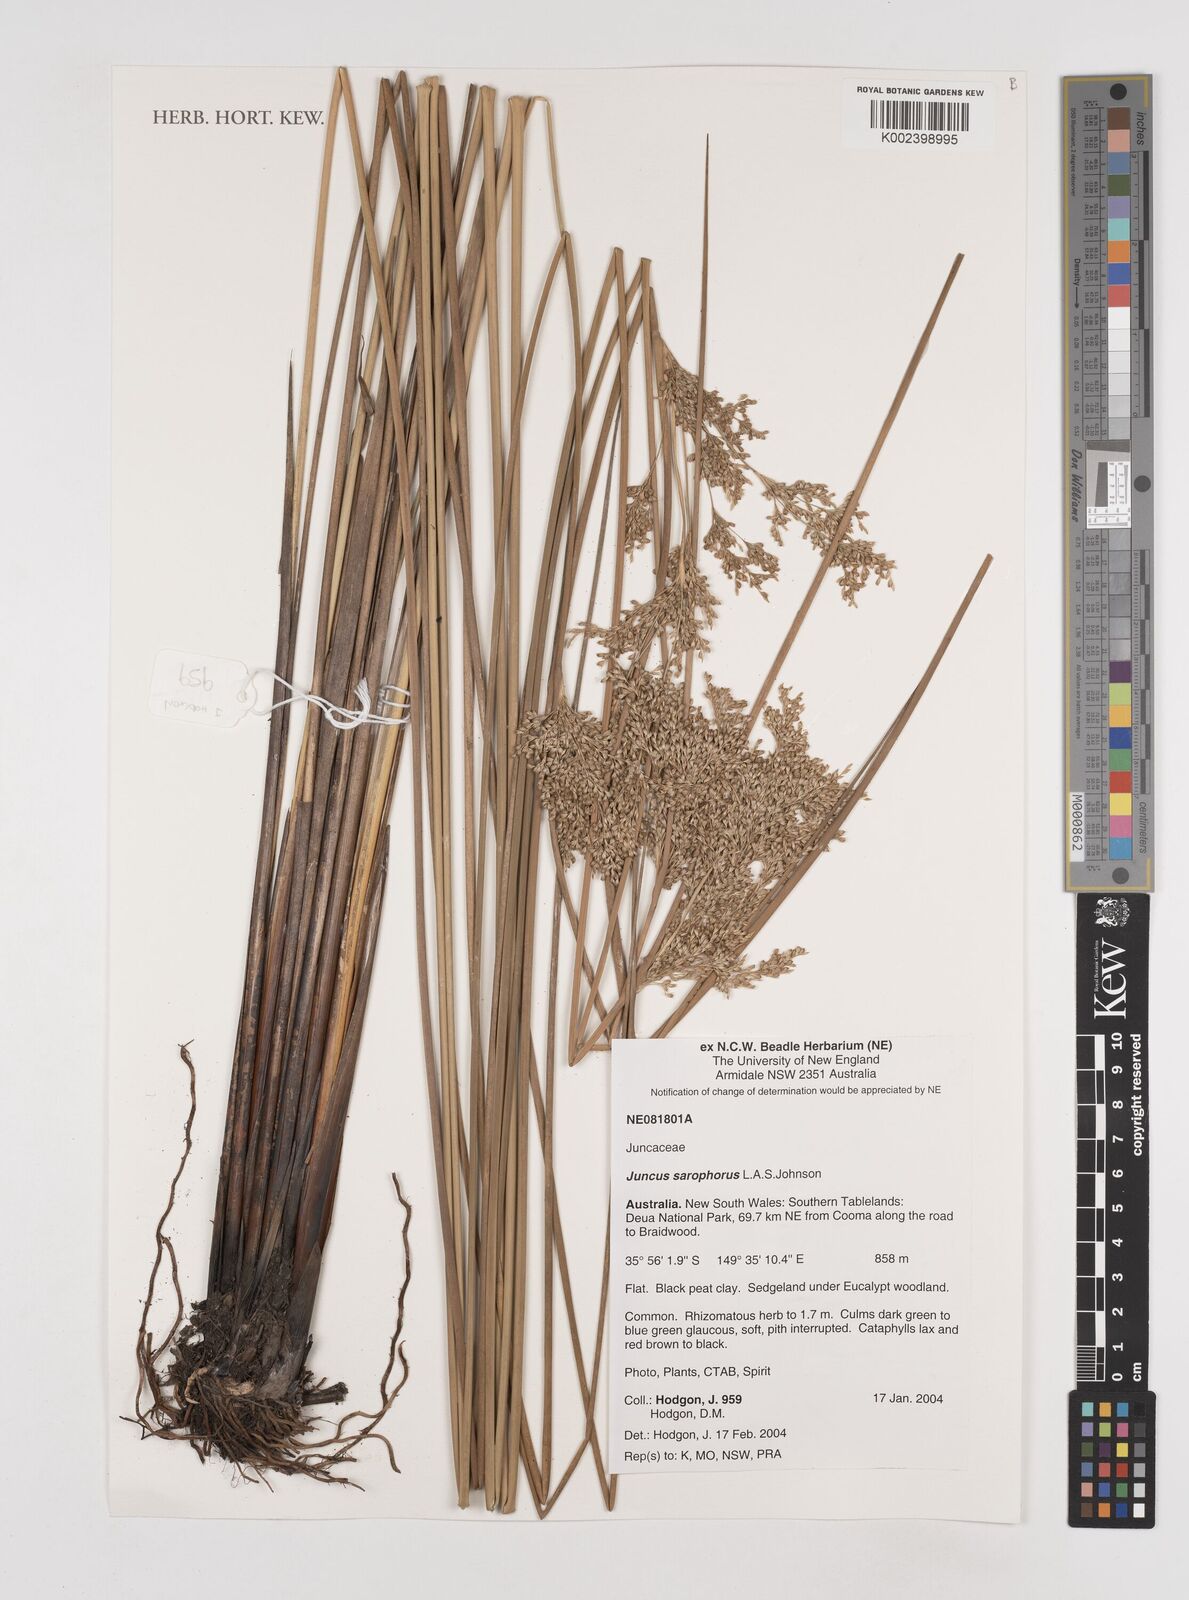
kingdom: Plantae
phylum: Tracheophyta
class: Liliopsida
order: Poales
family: Juncaceae
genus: Juncus
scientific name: Juncus sarophorus
